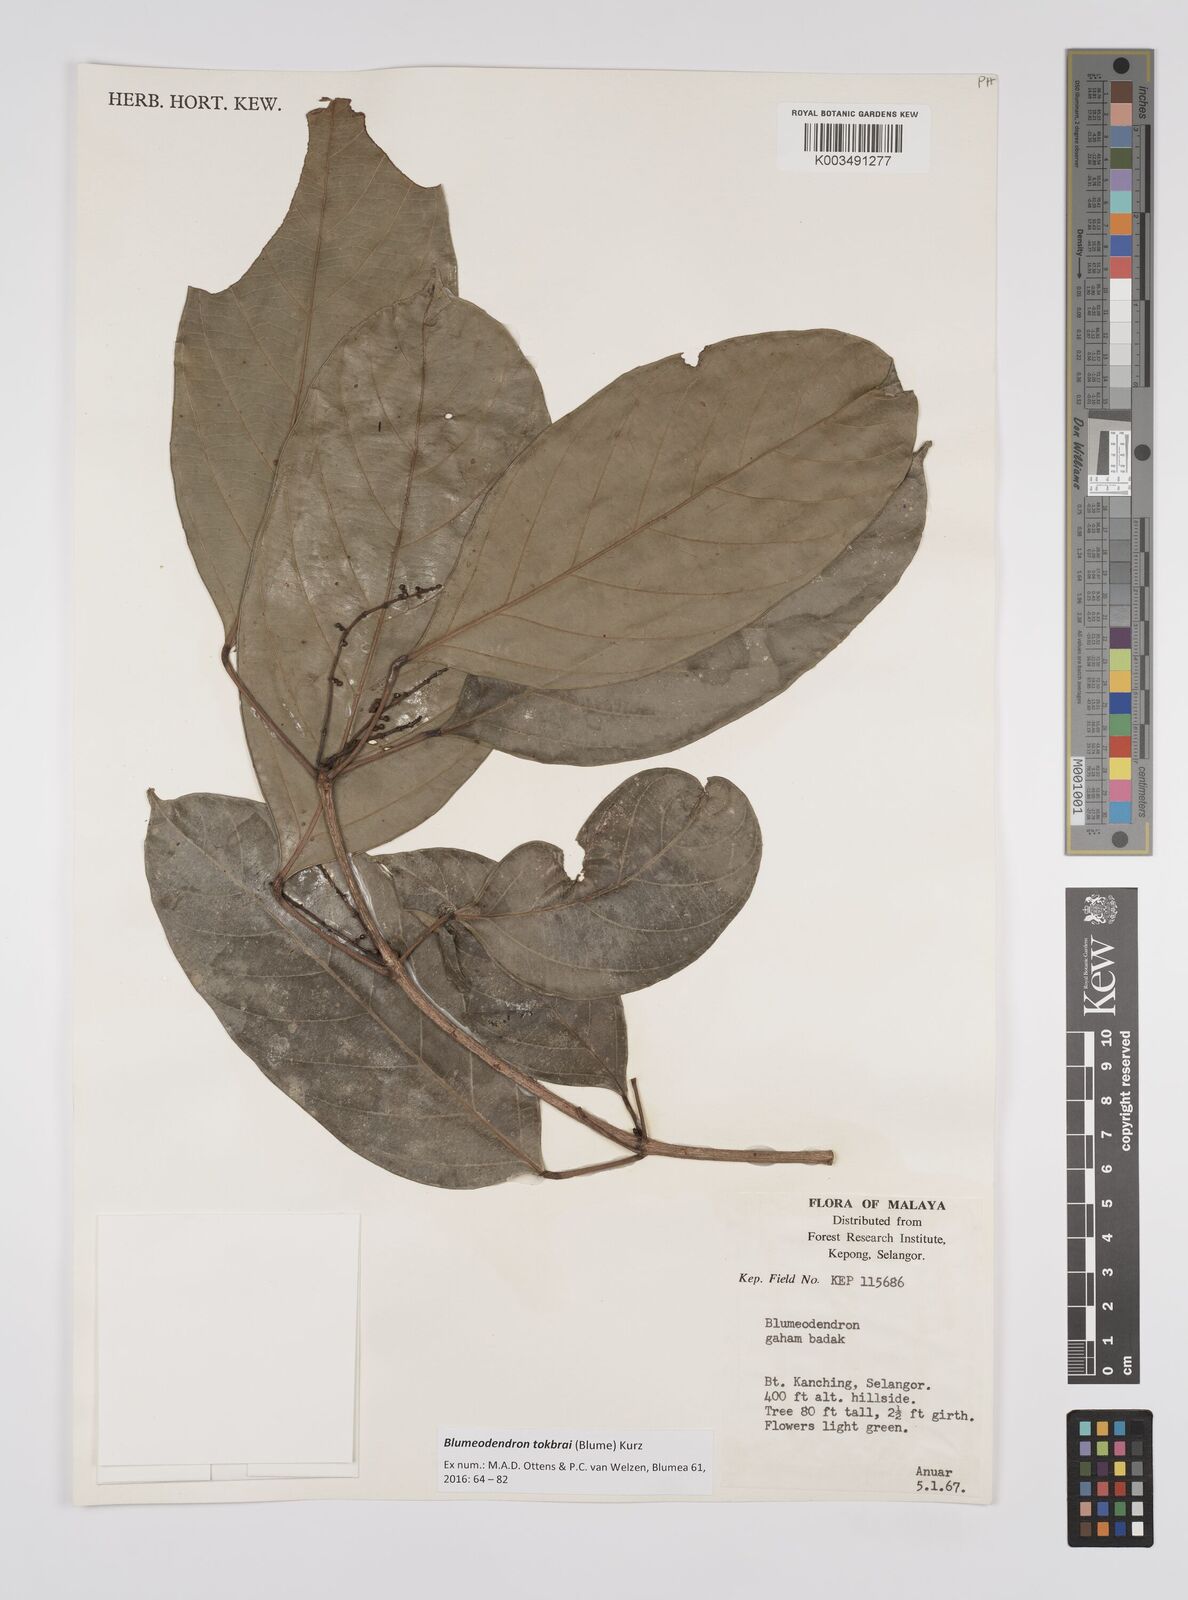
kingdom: Plantae
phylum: Tracheophyta
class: Magnoliopsida
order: Malpighiales
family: Euphorbiaceae
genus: Blumeodendron
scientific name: Blumeodendron tokbrai
